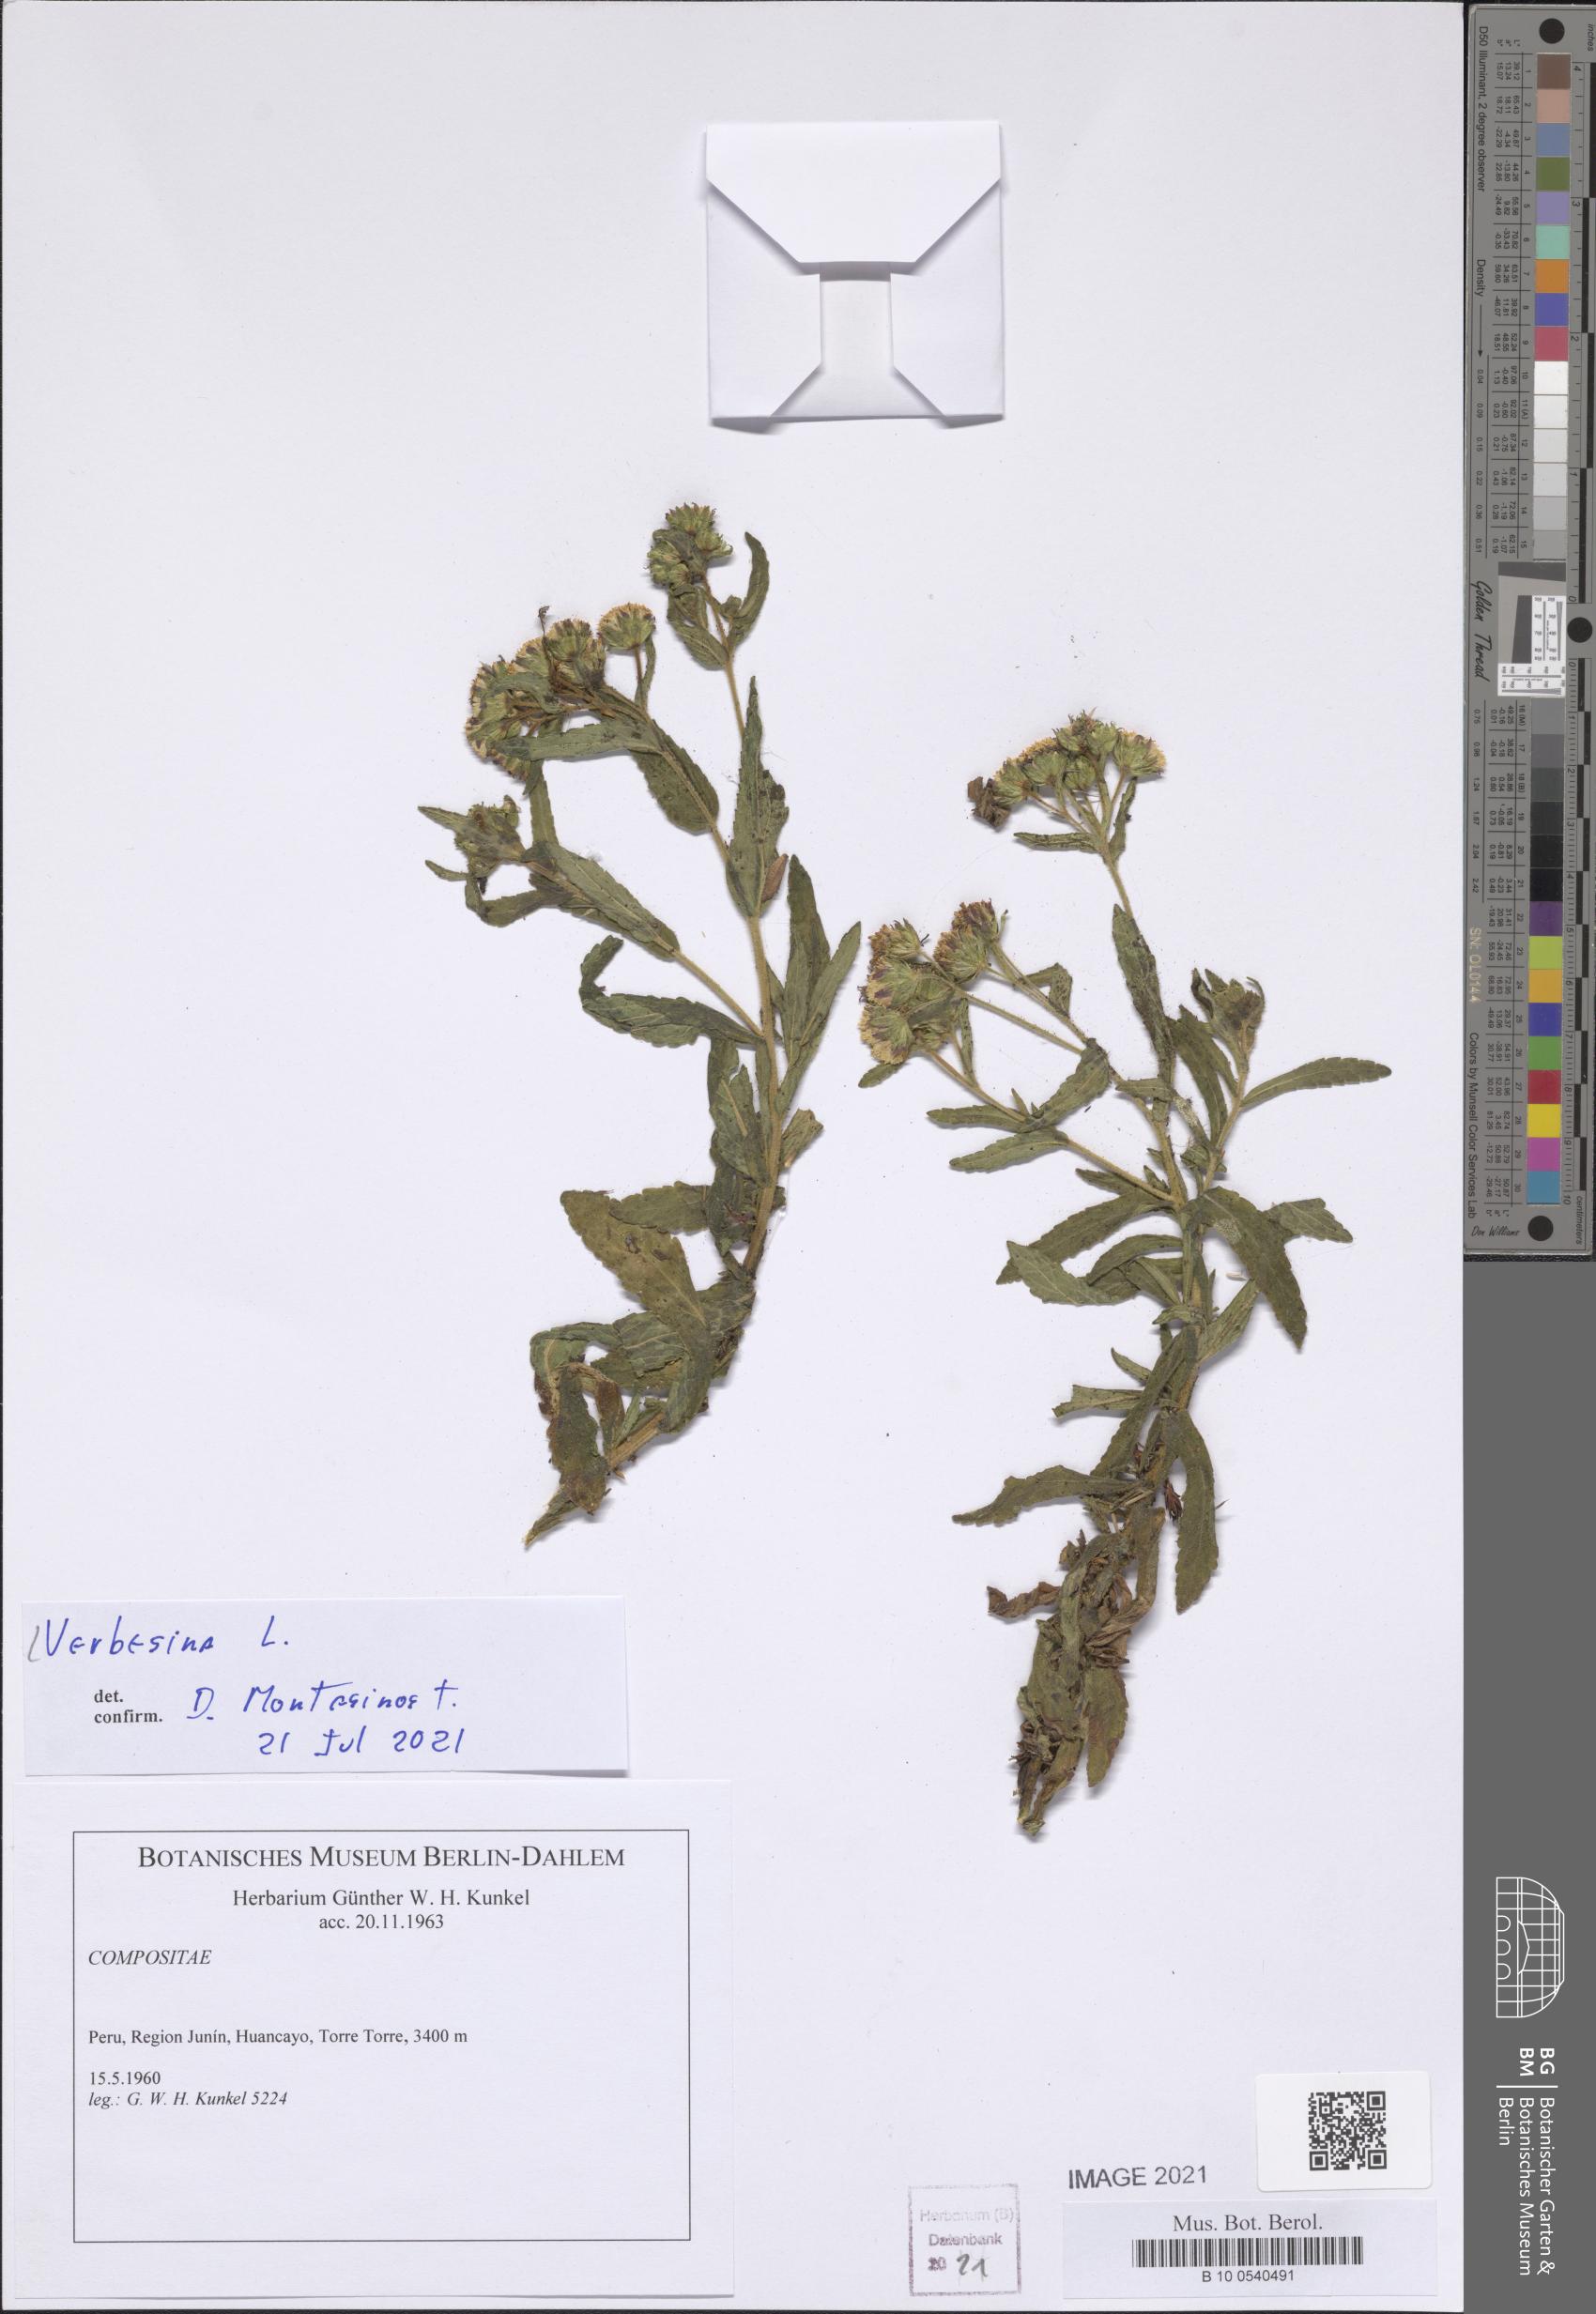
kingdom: Plantae
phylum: Tracheophyta
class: Magnoliopsida
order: Asterales
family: Asteraceae
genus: Verbesina
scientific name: Verbesina
